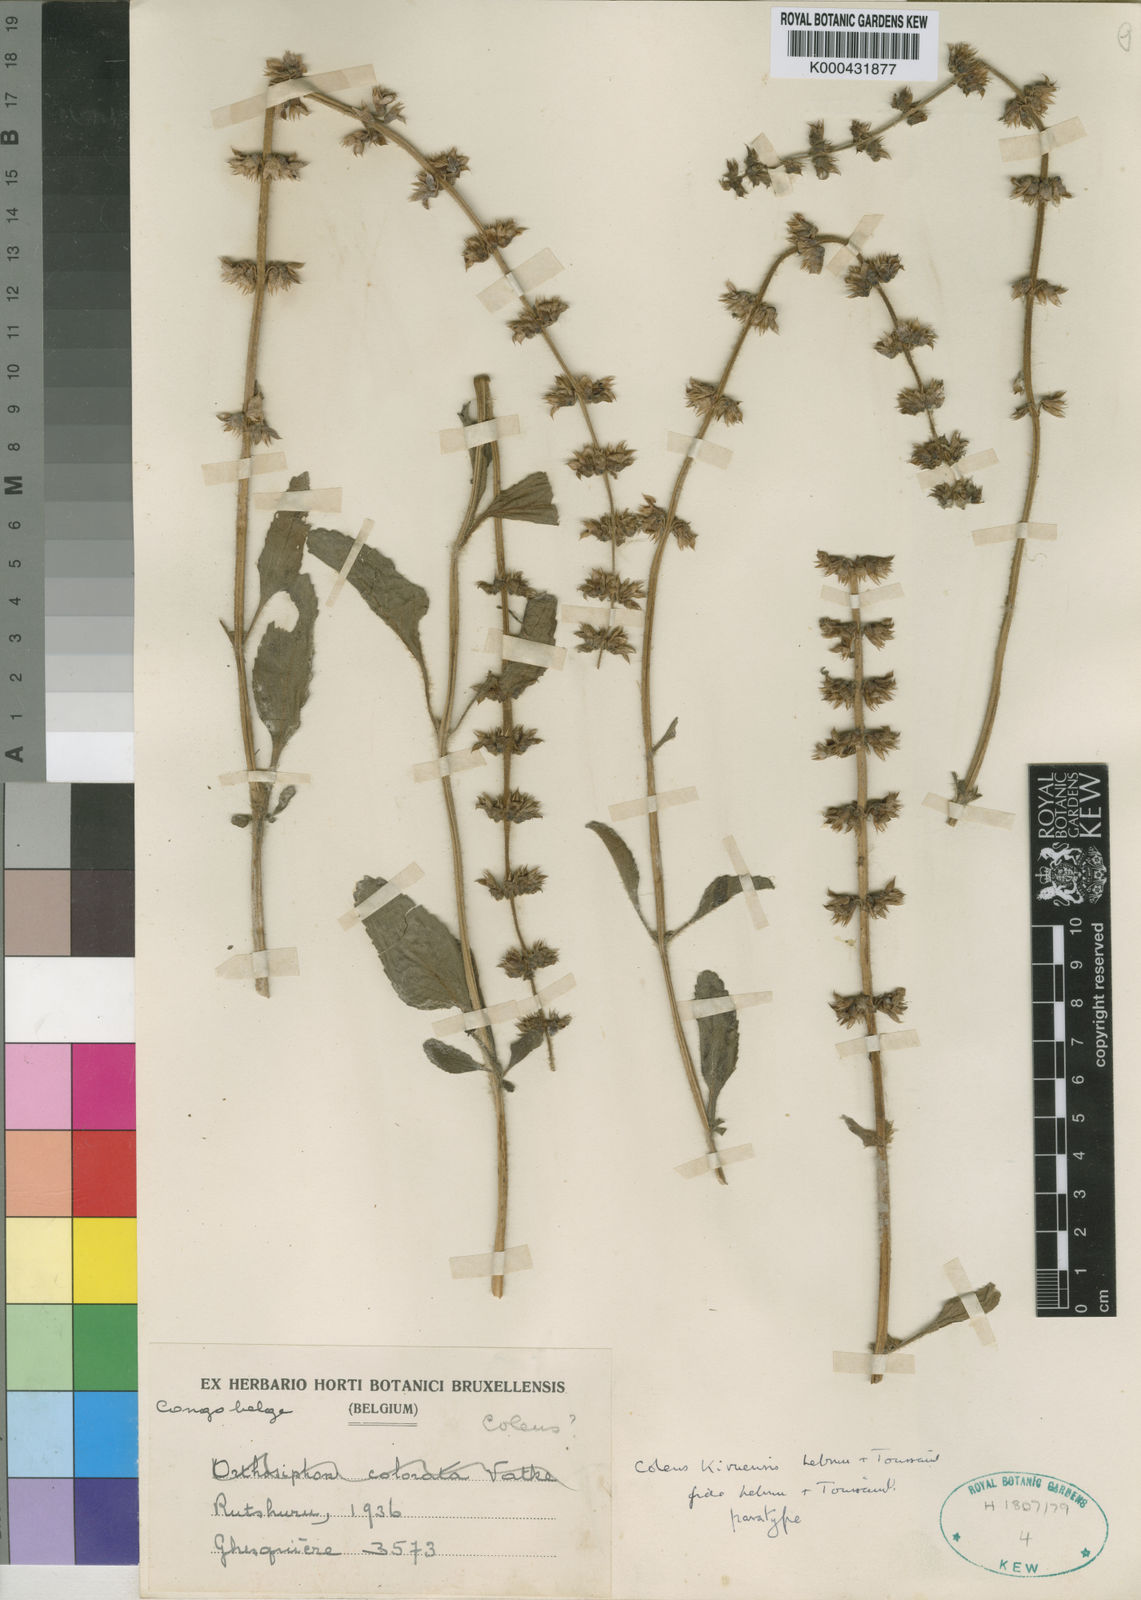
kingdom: Plantae
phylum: Tracheophyta
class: Magnoliopsida
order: Lamiales
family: Lamiaceae
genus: Coleus
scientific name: Coleus kivuensis
